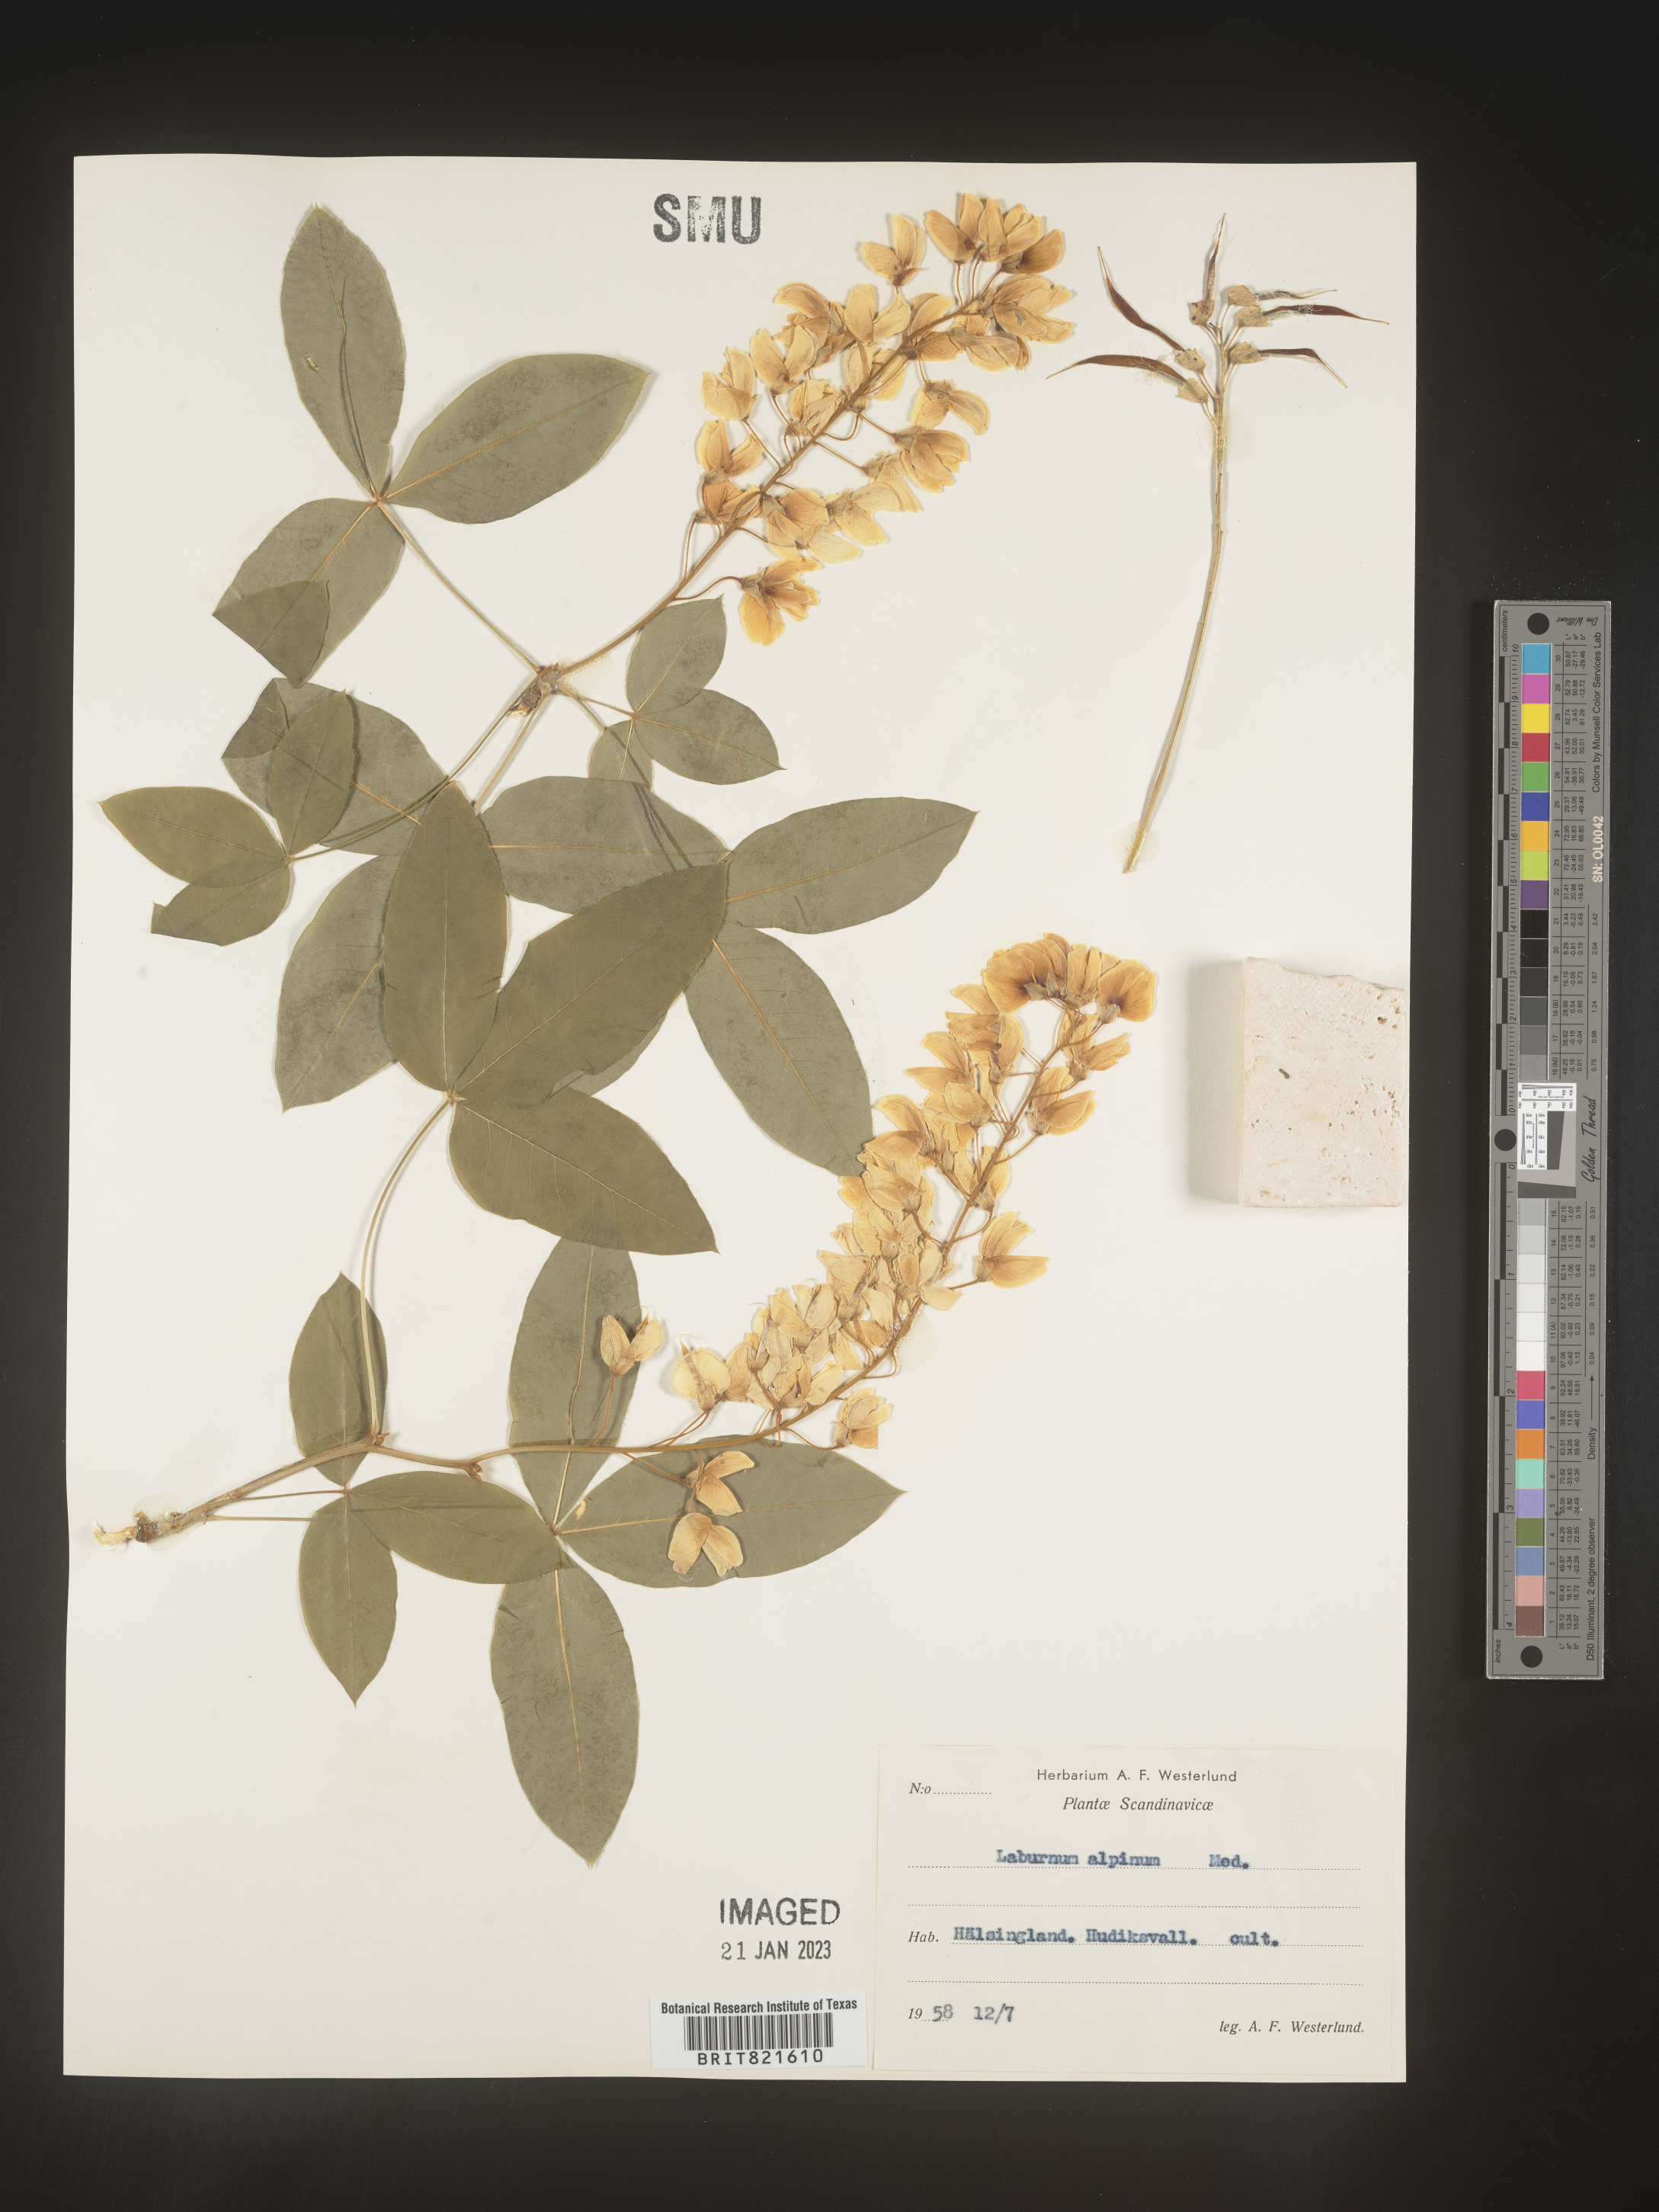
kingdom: Plantae
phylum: Tracheophyta
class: Magnoliopsida
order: Fabales
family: Fabaceae
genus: Laburnum
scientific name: Laburnum
